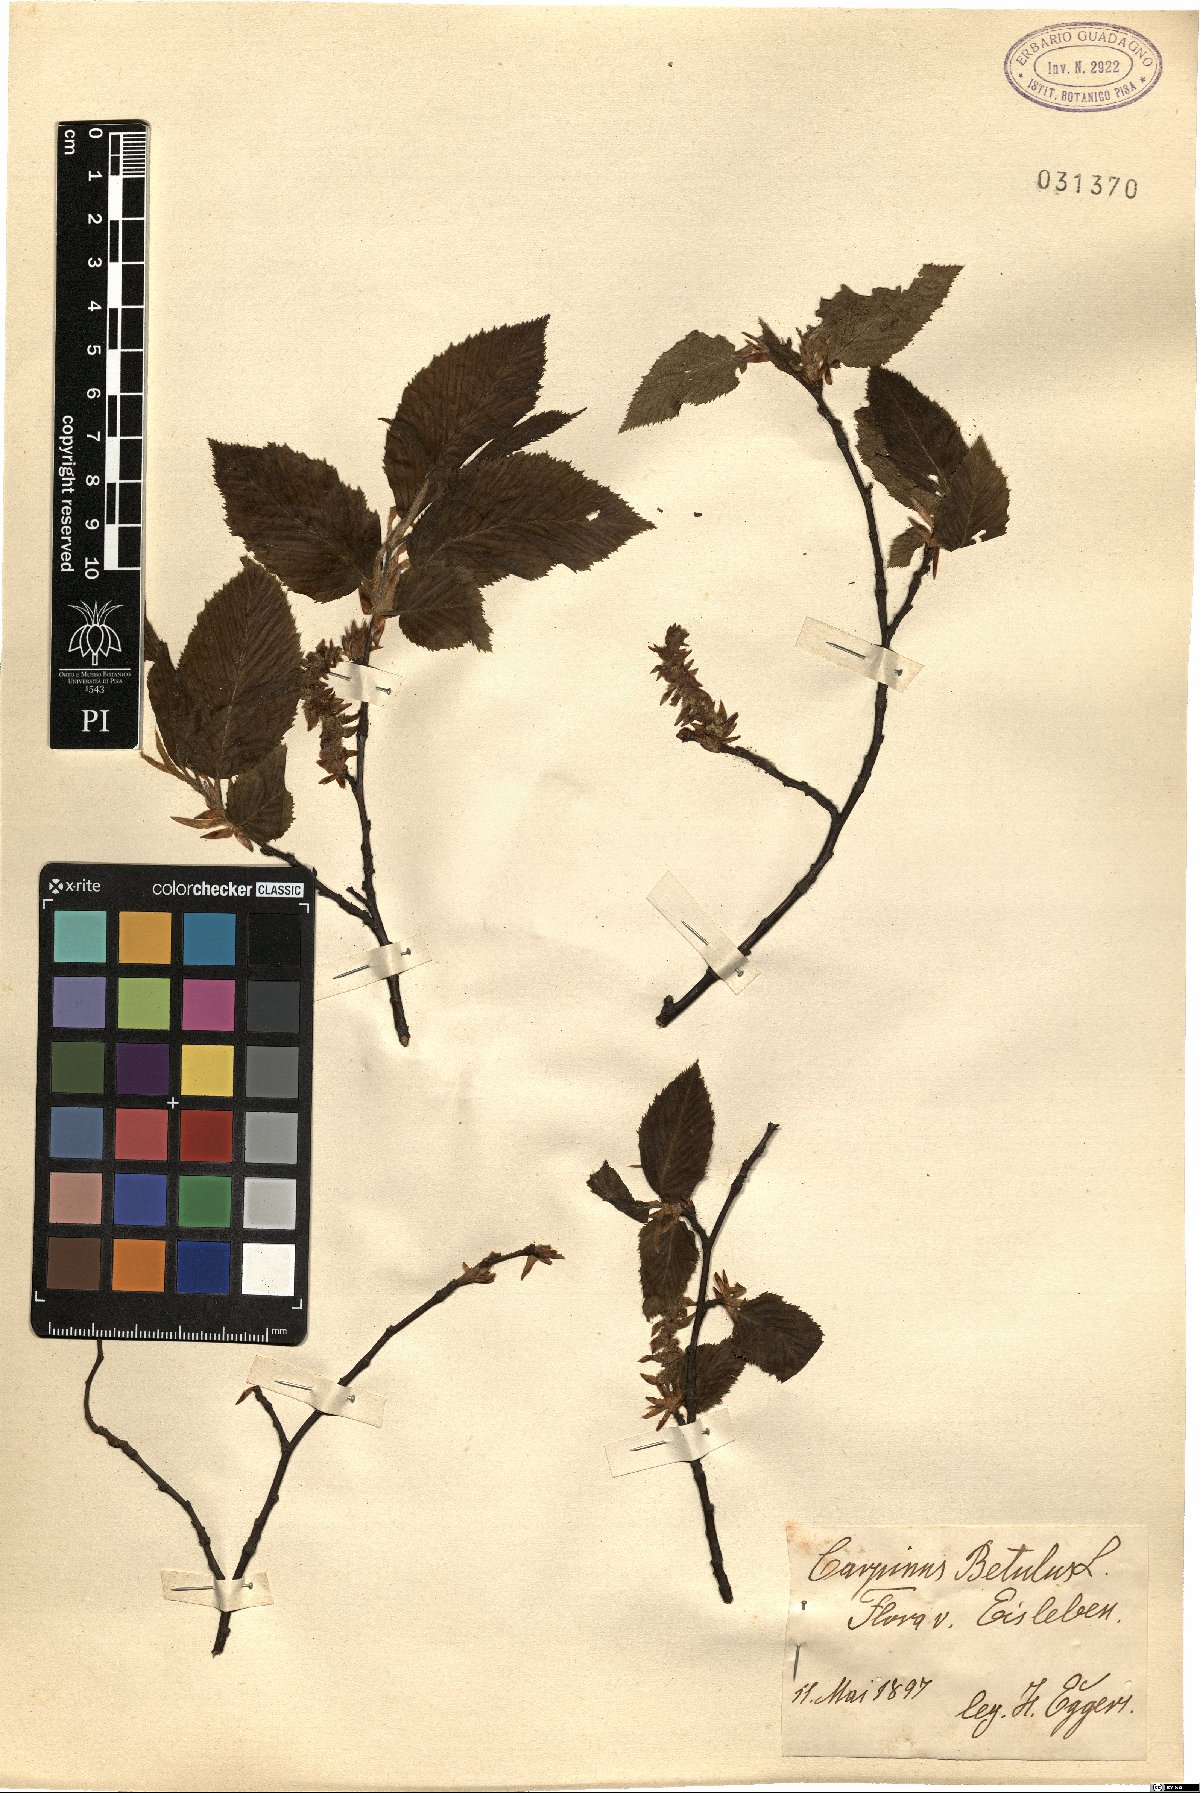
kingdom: Plantae
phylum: Tracheophyta
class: Magnoliopsida
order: Fagales
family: Betulaceae
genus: Carpinus
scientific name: Carpinus betulus
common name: Hornbeam
